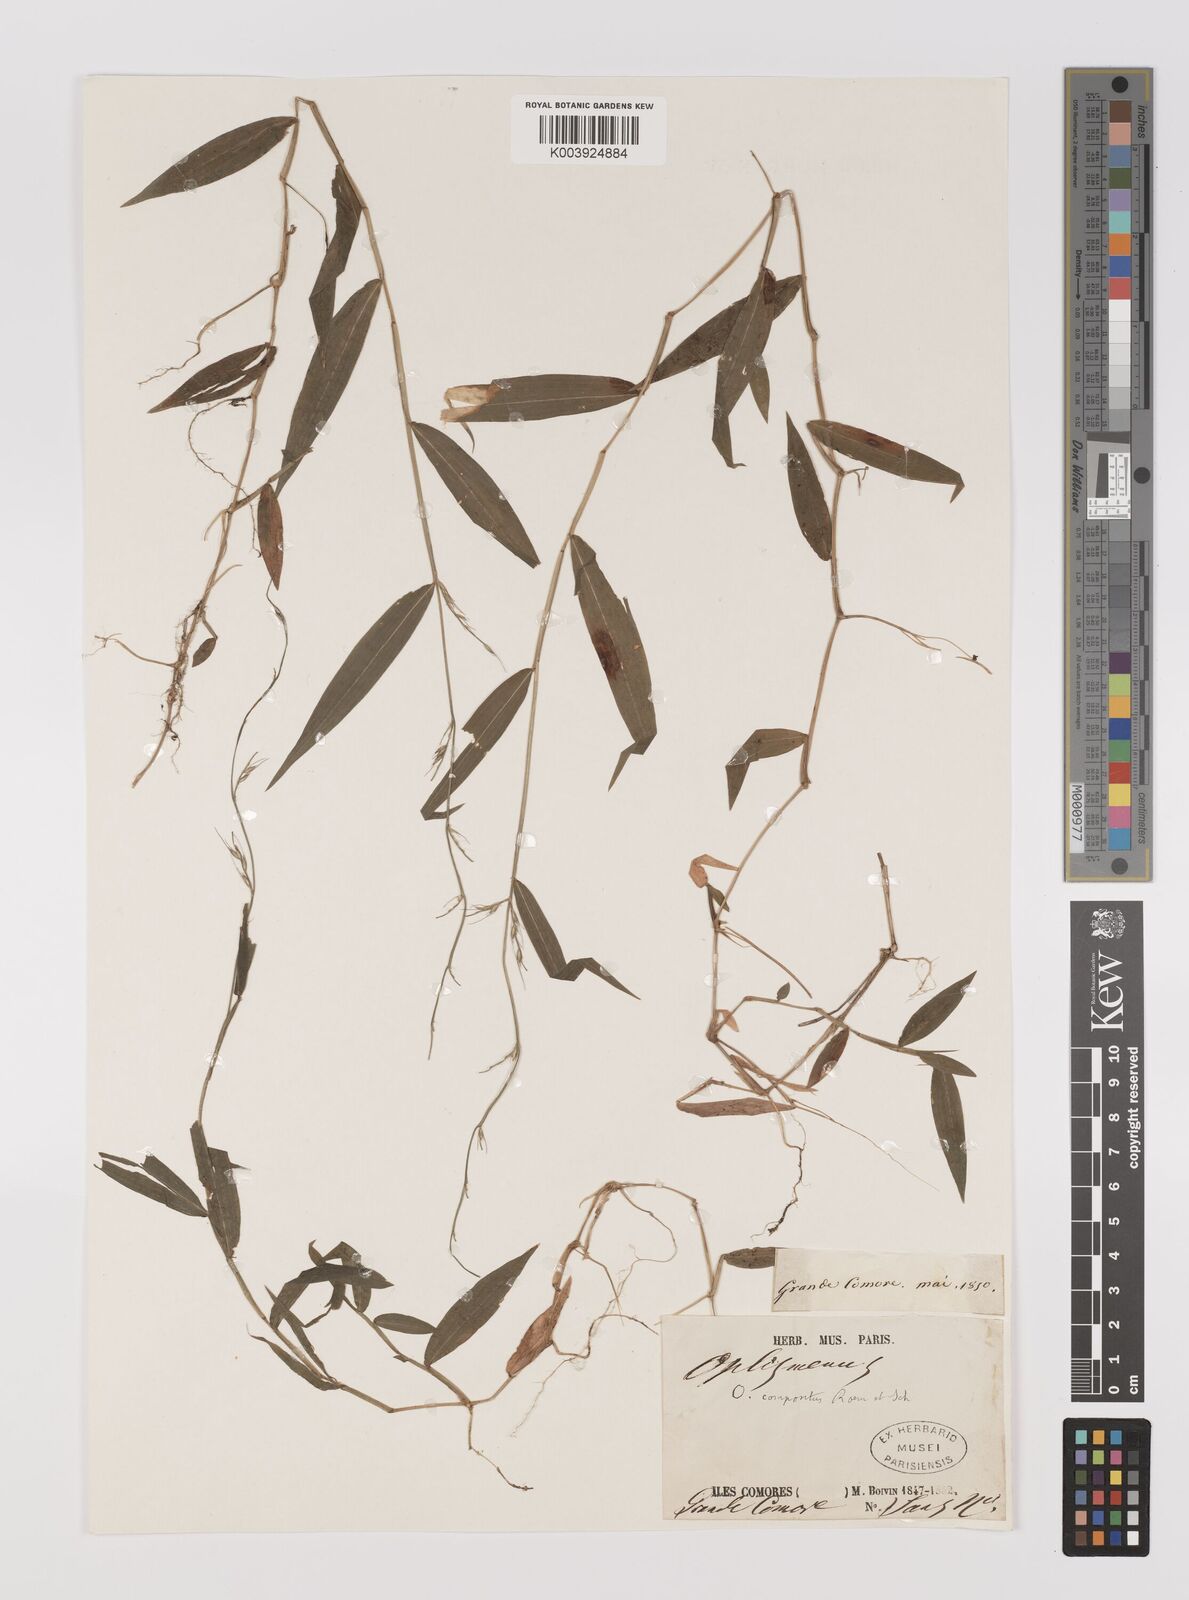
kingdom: Plantae
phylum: Tracheophyta
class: Liliopsida
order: Poales
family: Poaceae
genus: Oplismenus
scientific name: Oplismenus compositus
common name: Running mountain grass
